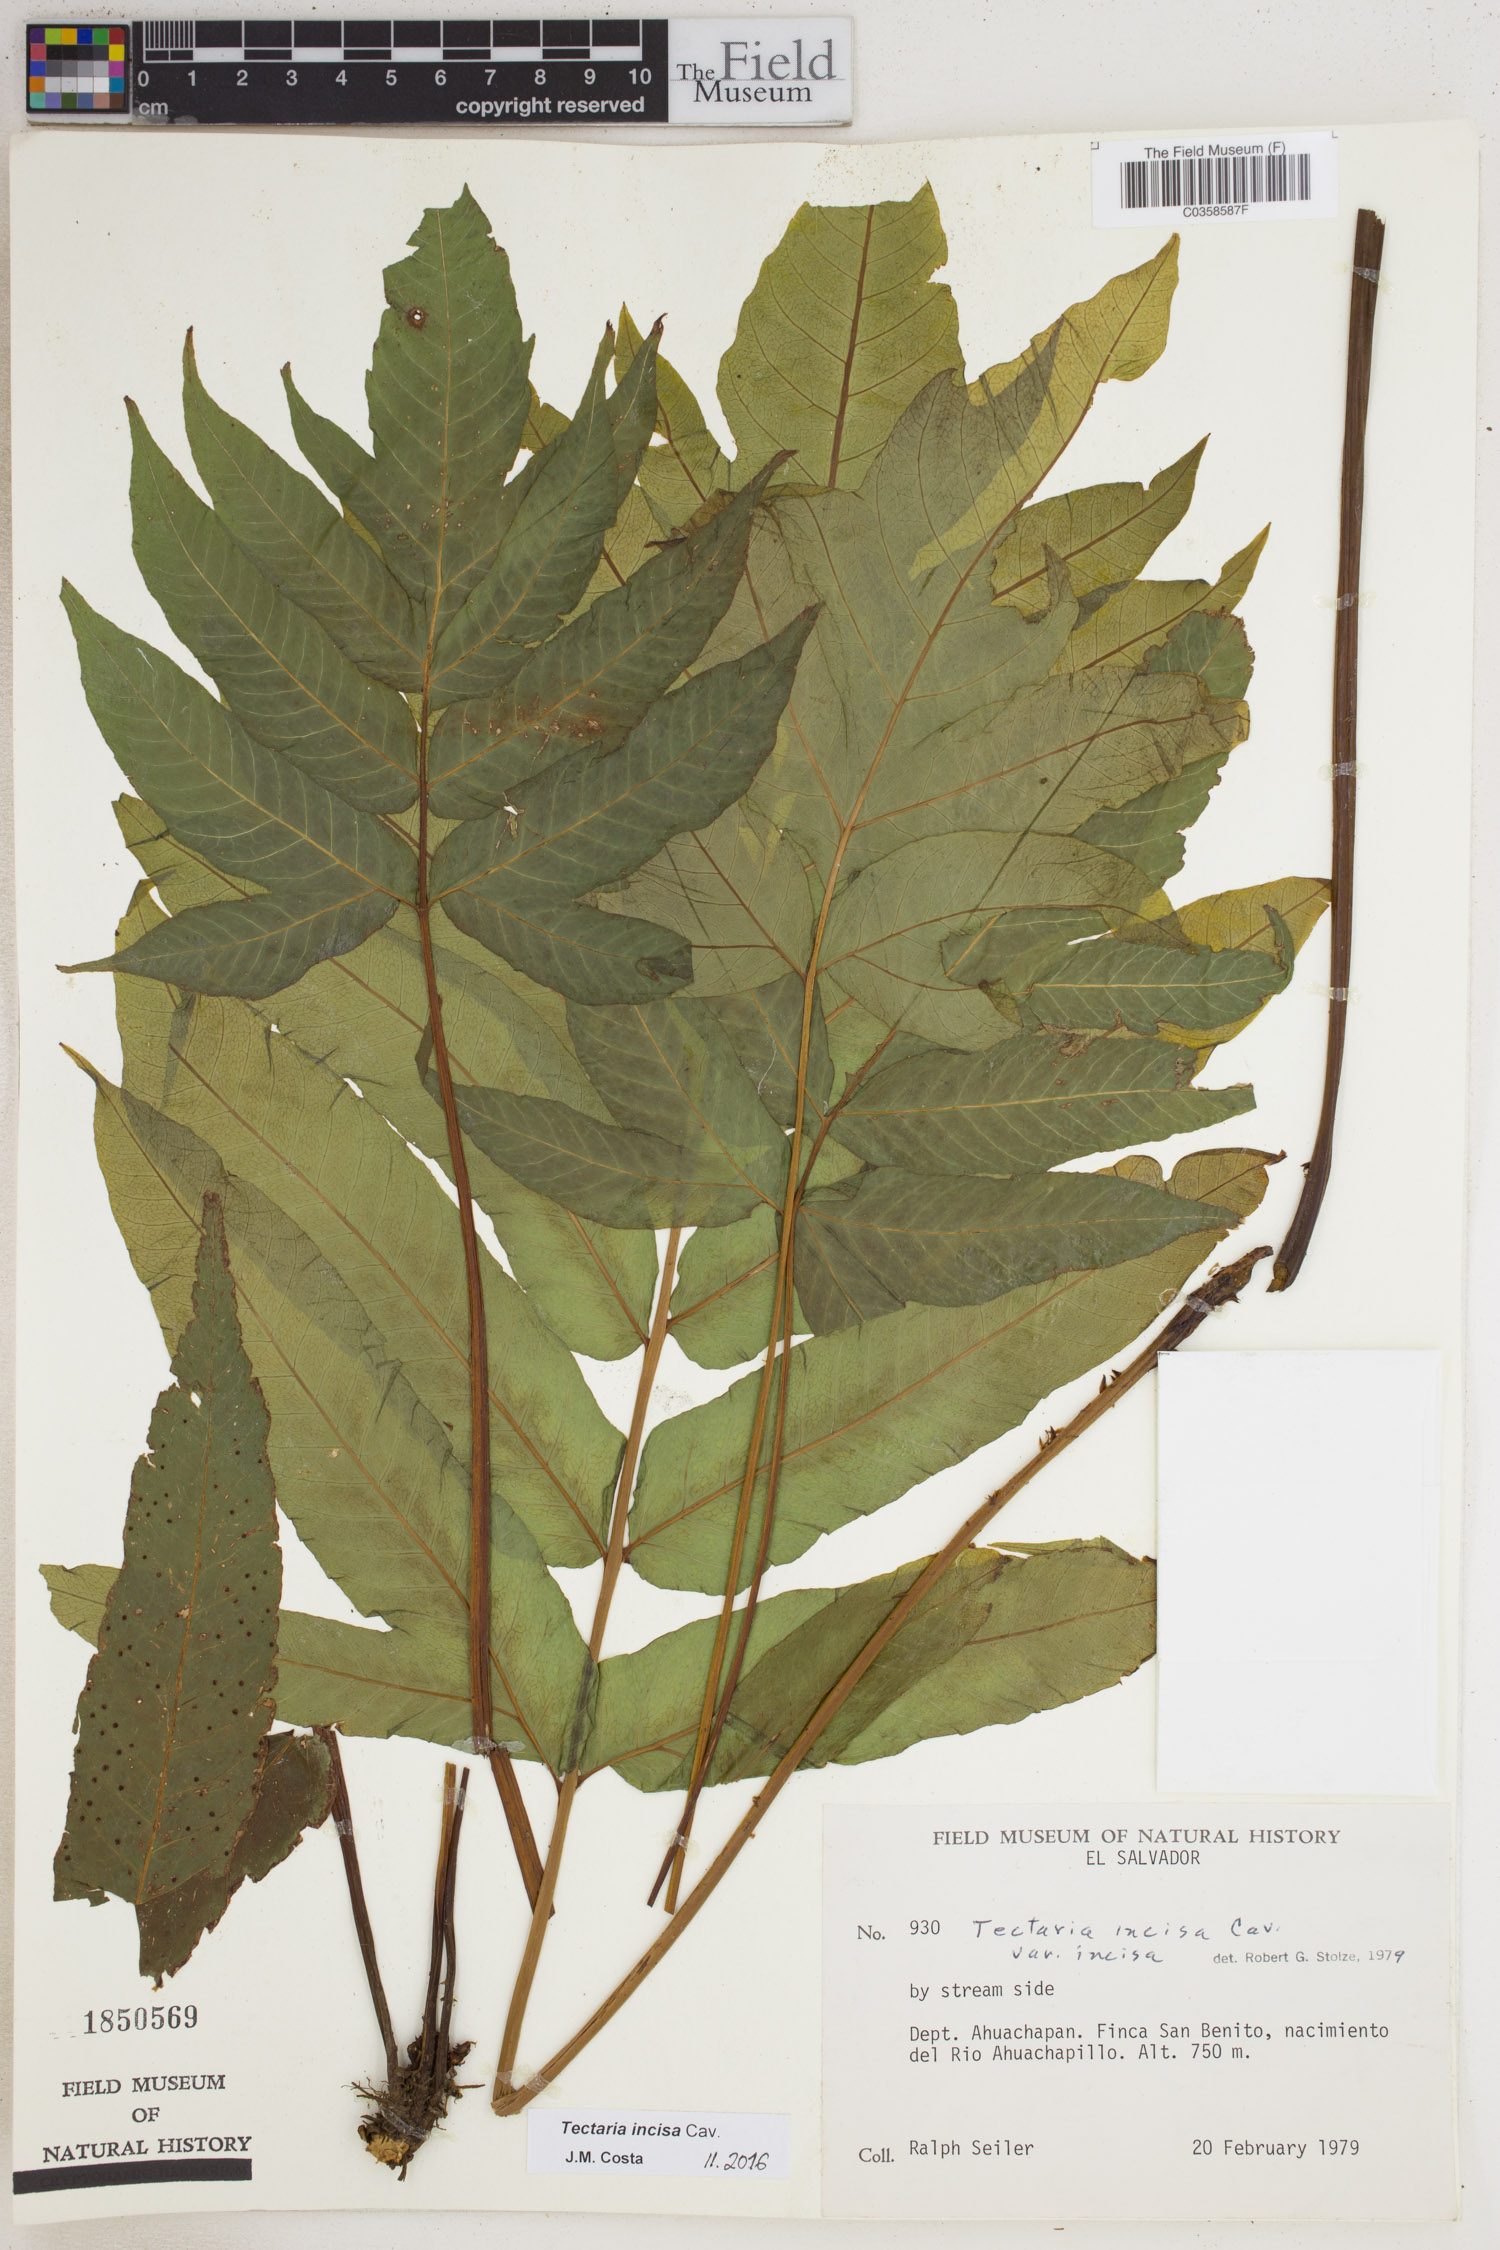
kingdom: Plantae
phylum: Tracheophyta
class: Polypodiopsida
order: Polypodiales
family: Tectariaceae
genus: Tectaria
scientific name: Tectaria incisa
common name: Incised halberd fern
